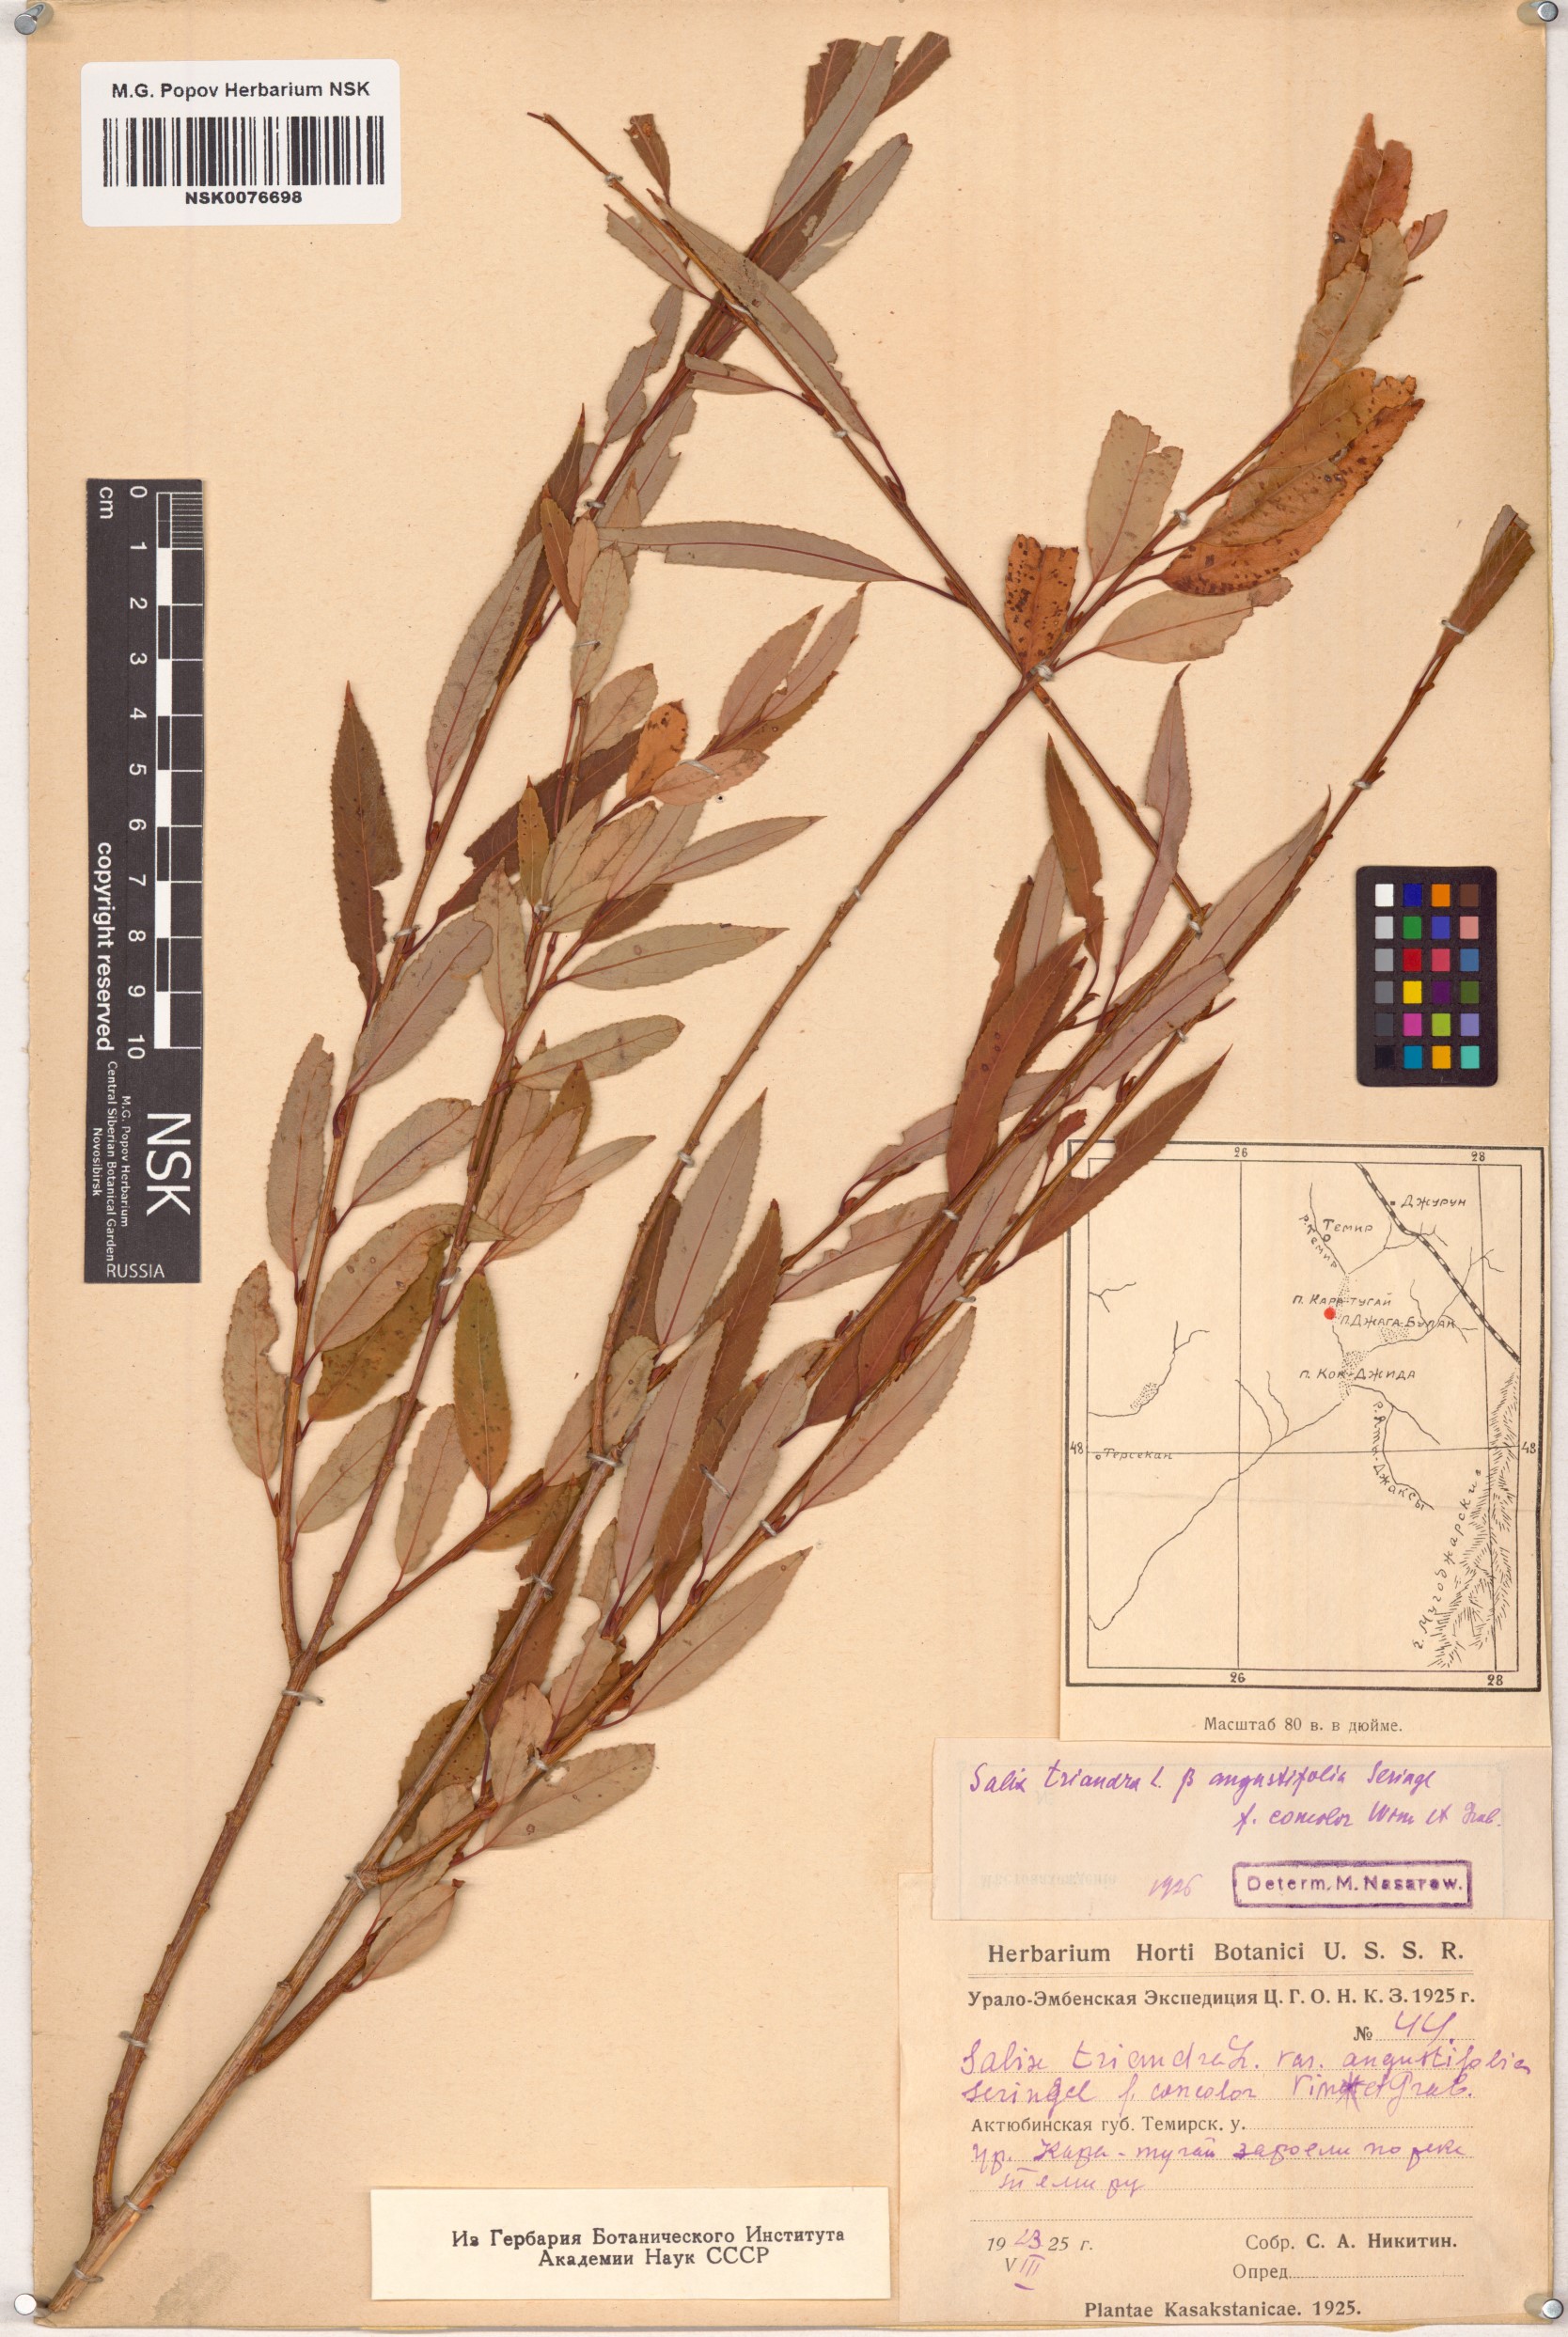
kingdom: Plantae
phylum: Tracheophyta
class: Magnoliopsida
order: Malpighiales
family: Salicaceae
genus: Salix
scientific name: Salix triandra
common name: Almond willow
